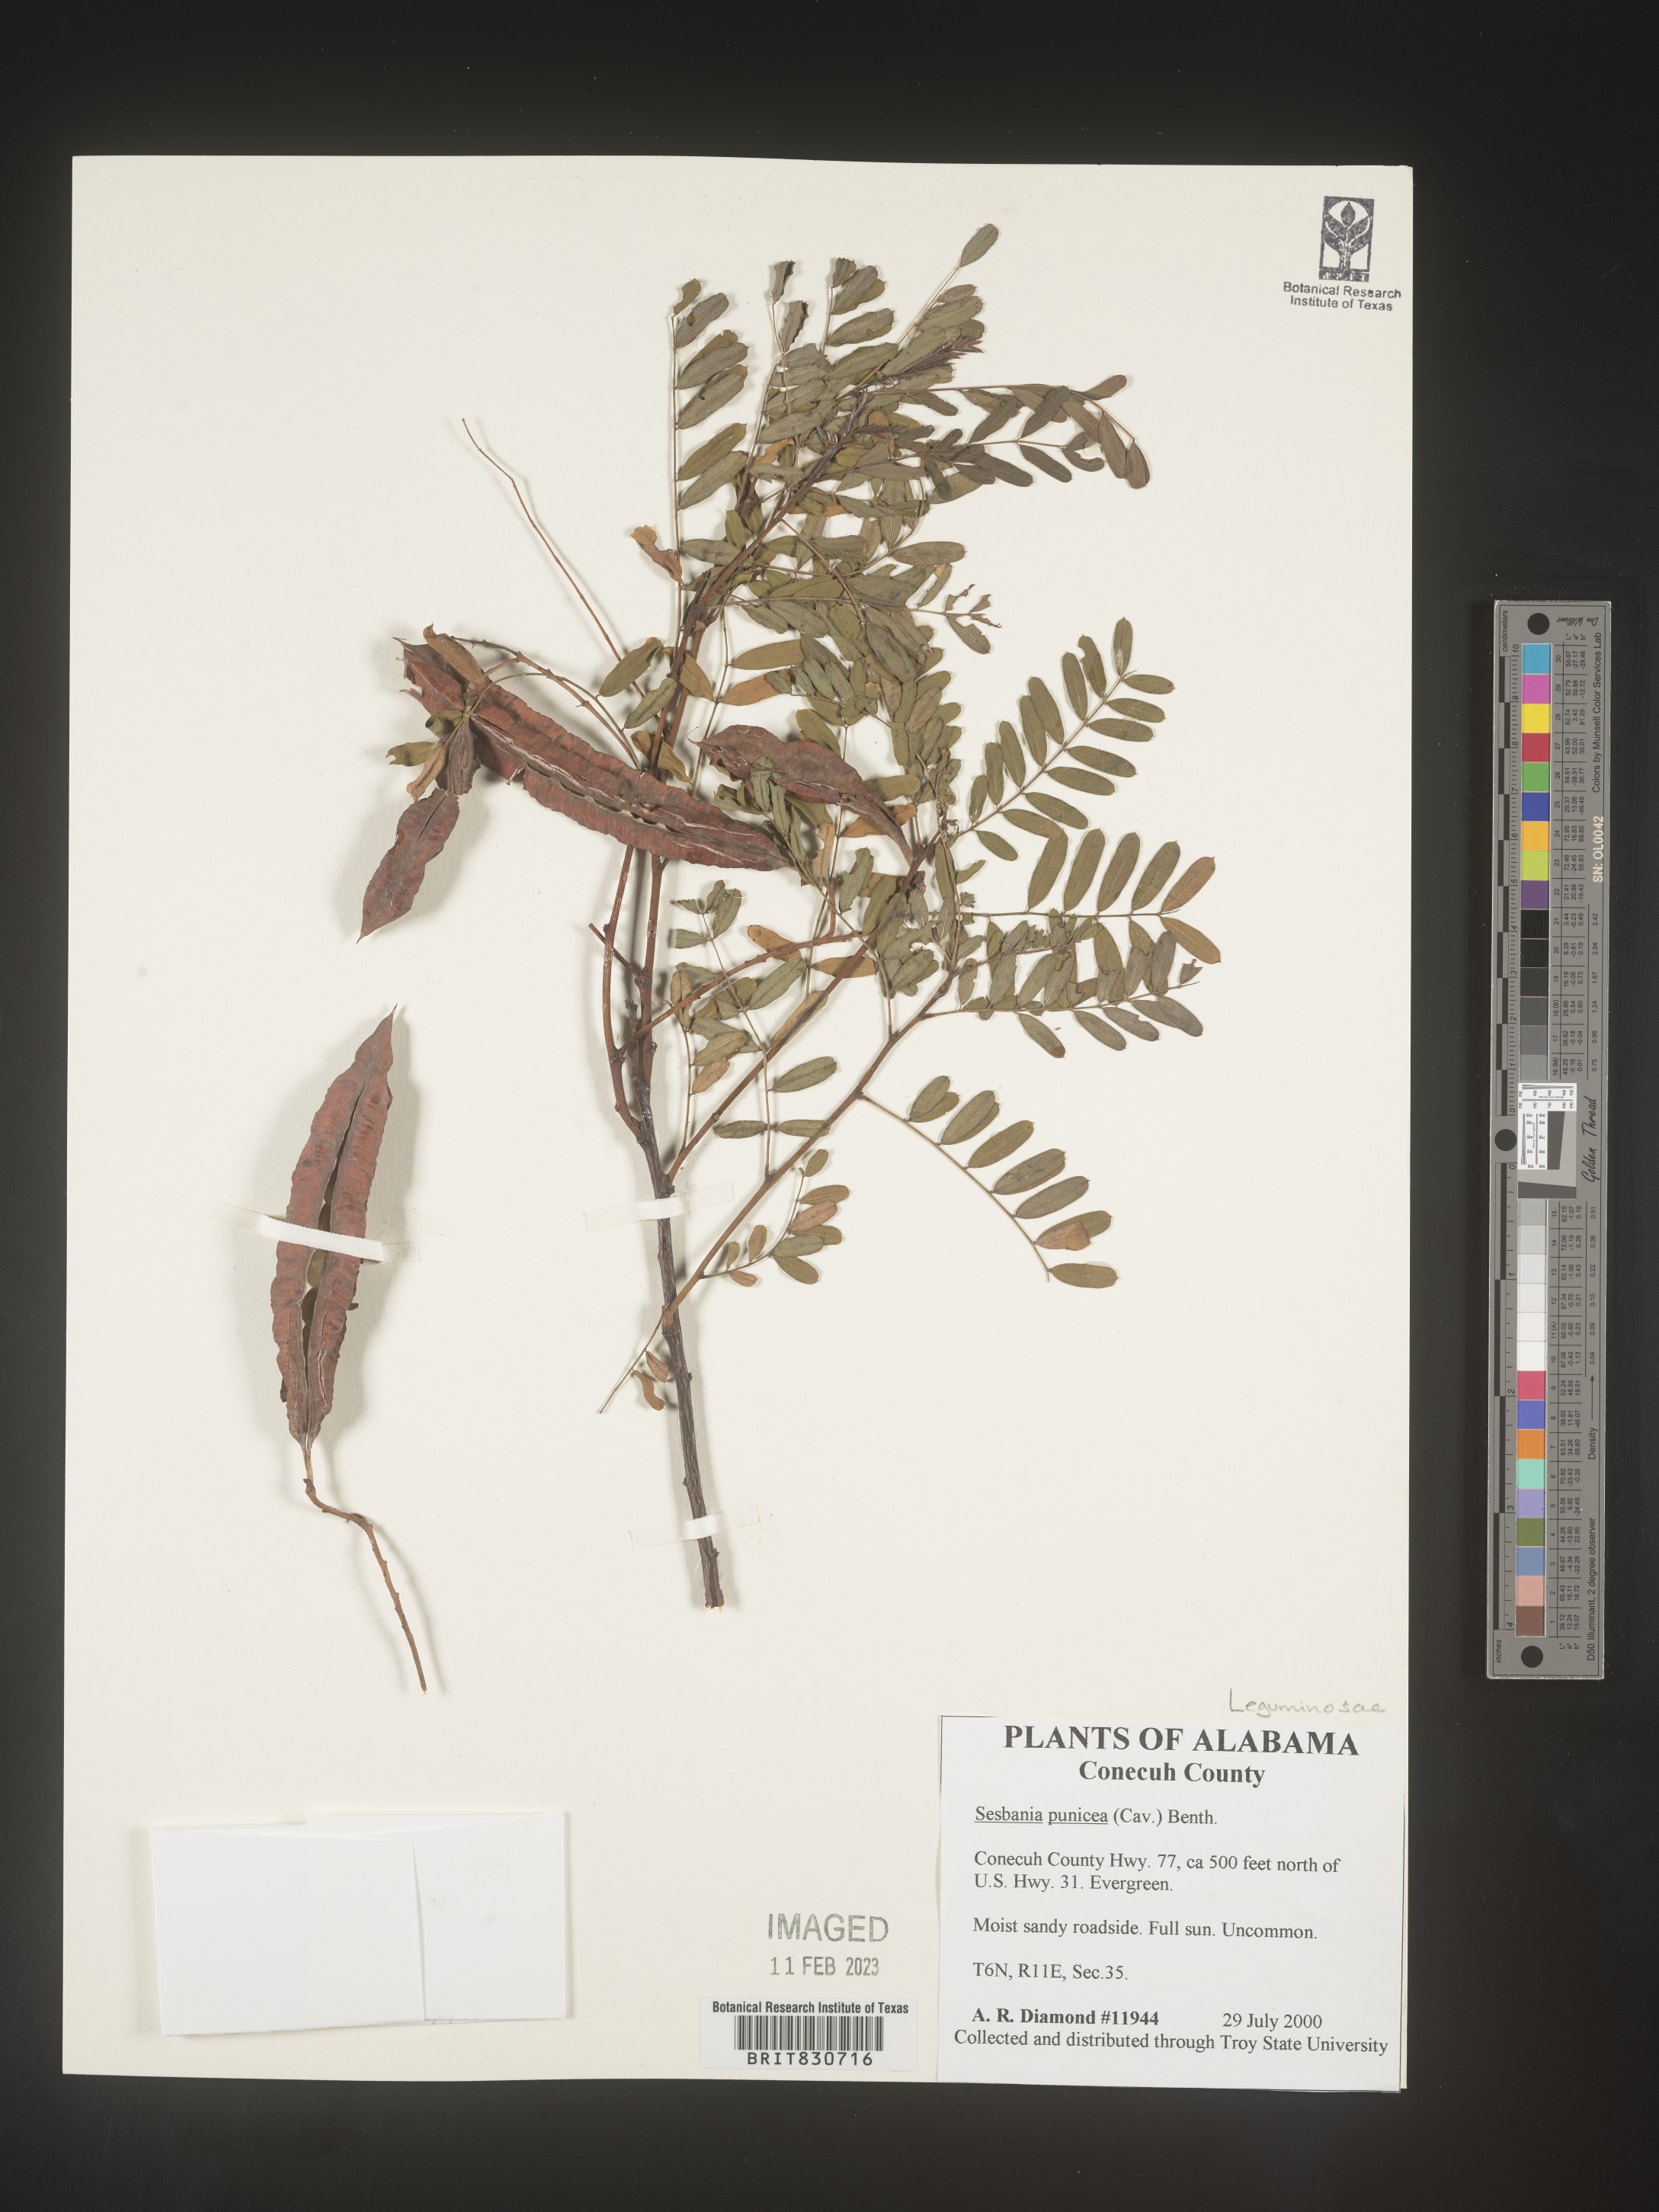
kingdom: Plantae
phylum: Tracheophyta
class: Magnoliopsida
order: Fabales
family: Fabaceae
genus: Sesbania
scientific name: Sesbania punicea
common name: Rattlebox
